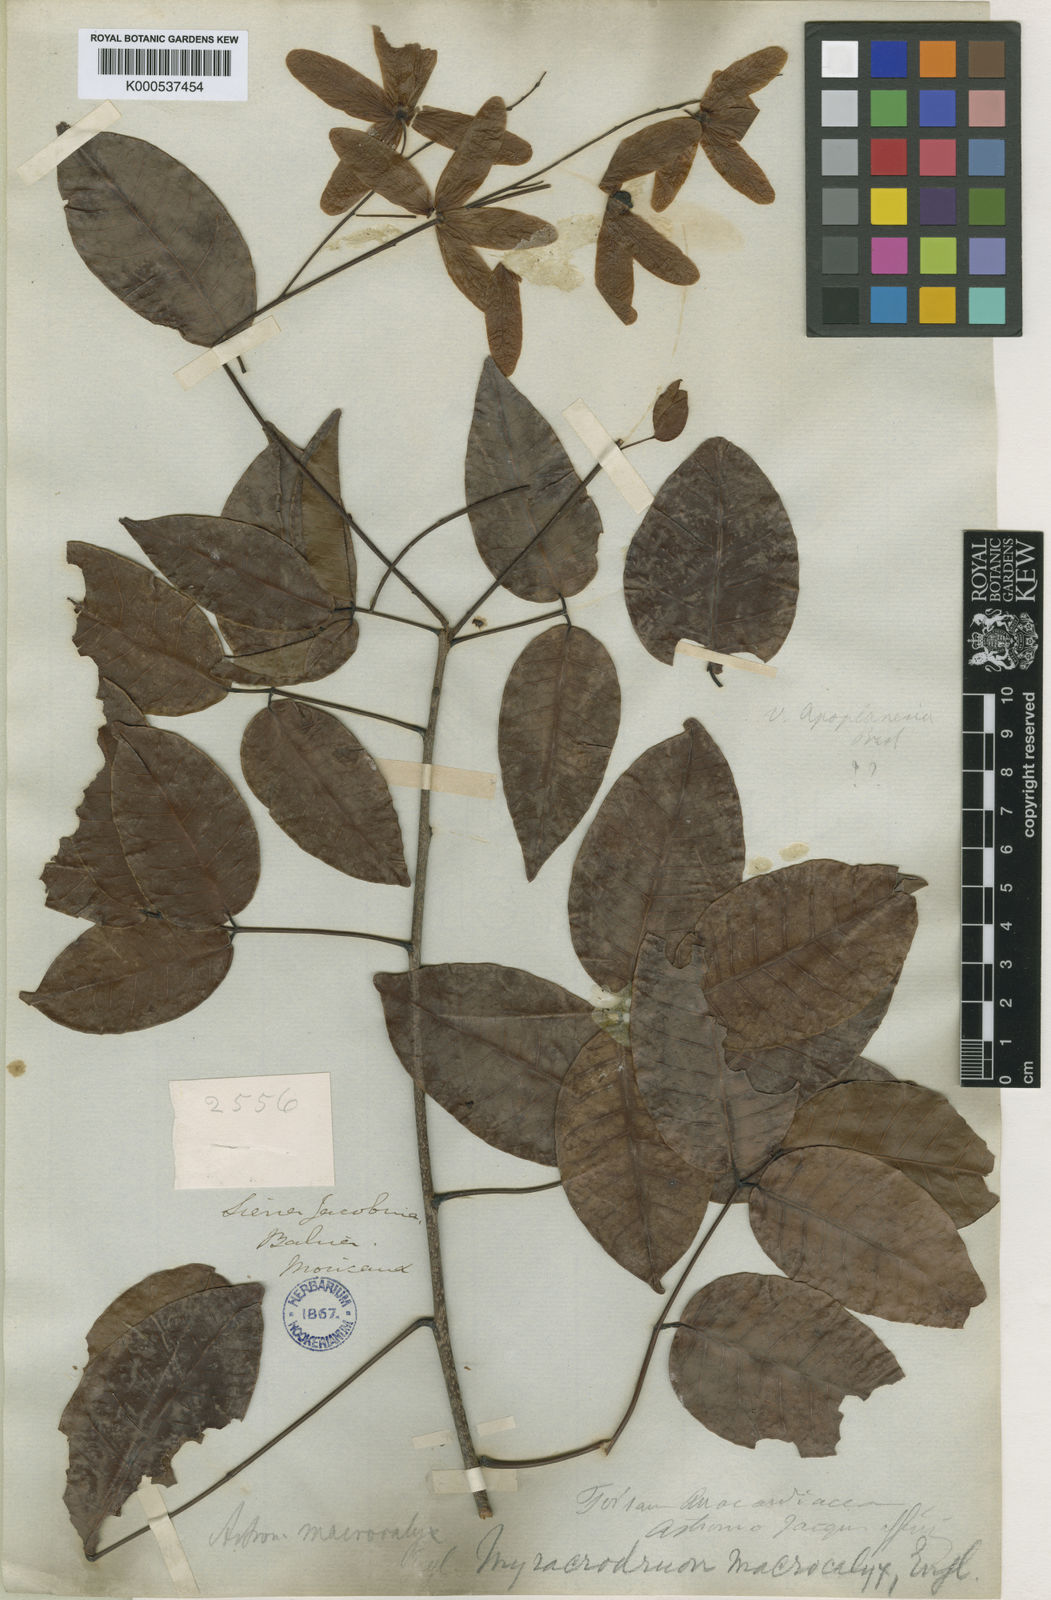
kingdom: Plantae
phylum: Tracheophyta
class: Magnoliopsida
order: Sapindales
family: Anacardiaceae
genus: Myracrodruon
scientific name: Myracrodruon urundeuva
